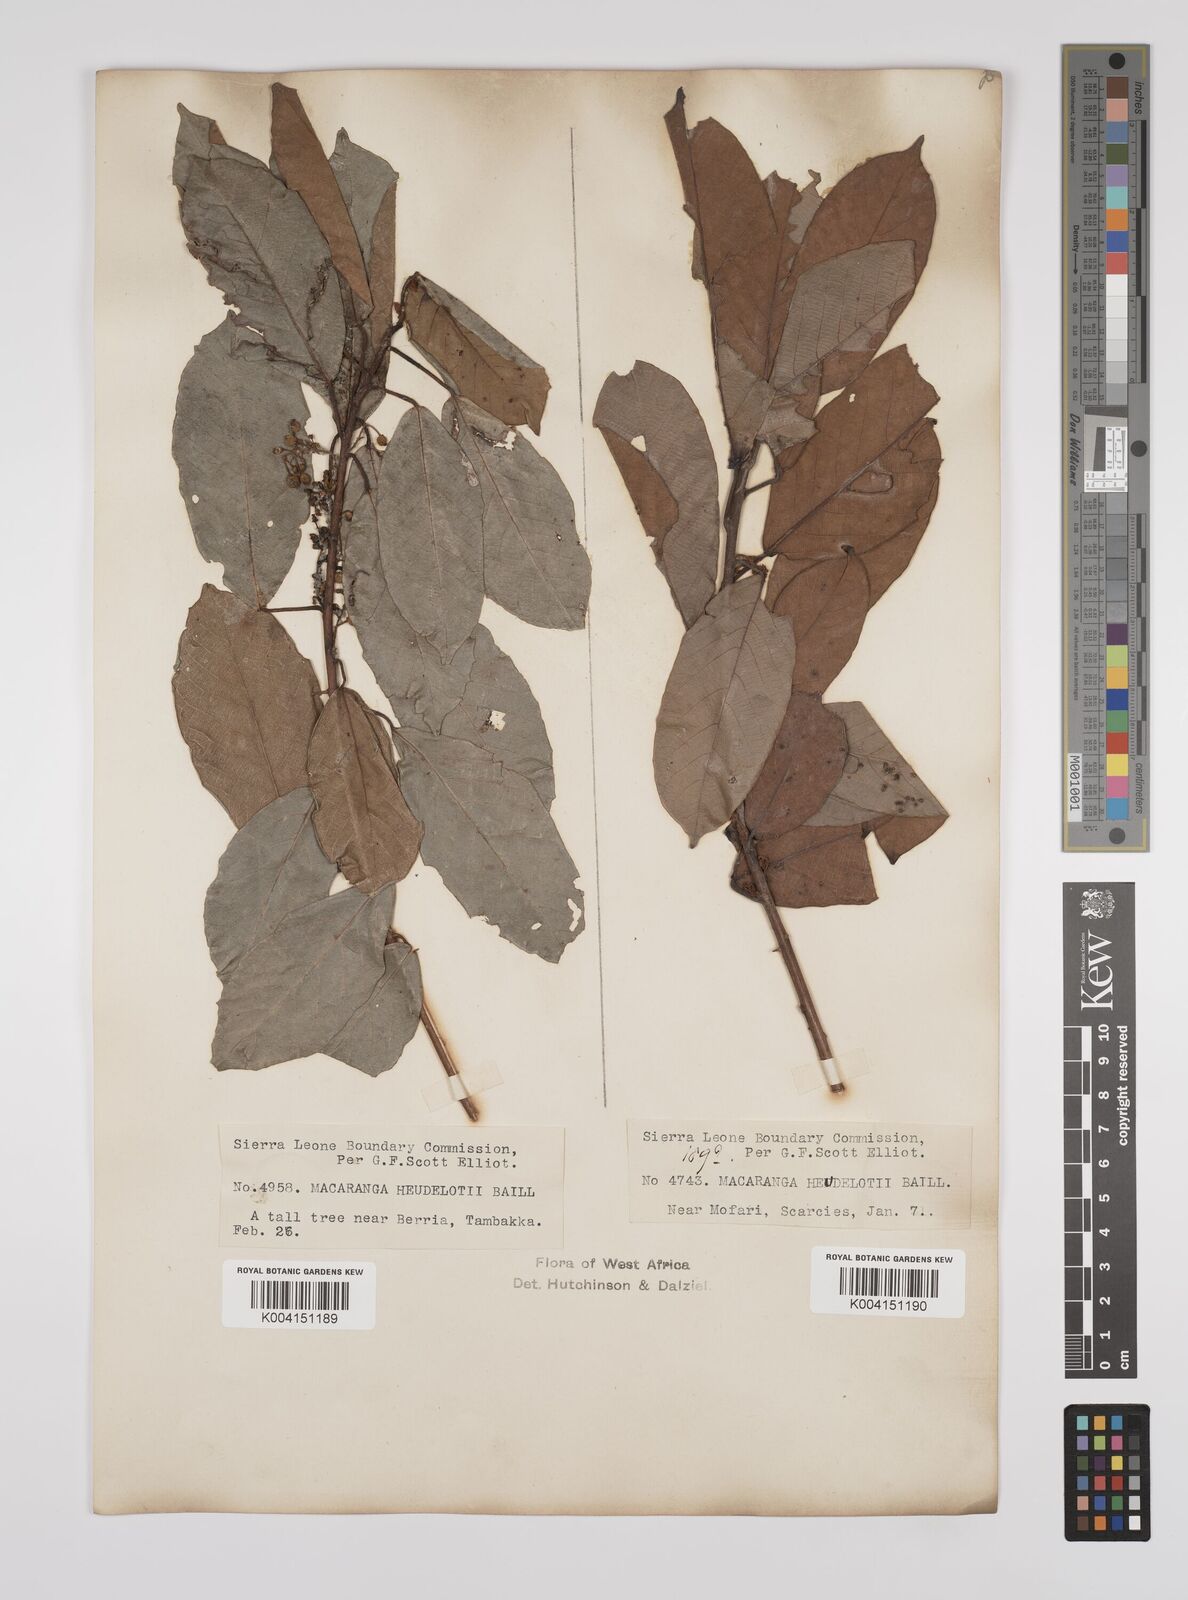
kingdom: Plantae
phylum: Tracheophyta
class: Magnoliopsida
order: Malpighiales
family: Euphorbiaceae
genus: Macaranga
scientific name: Macaranga heudelotii
